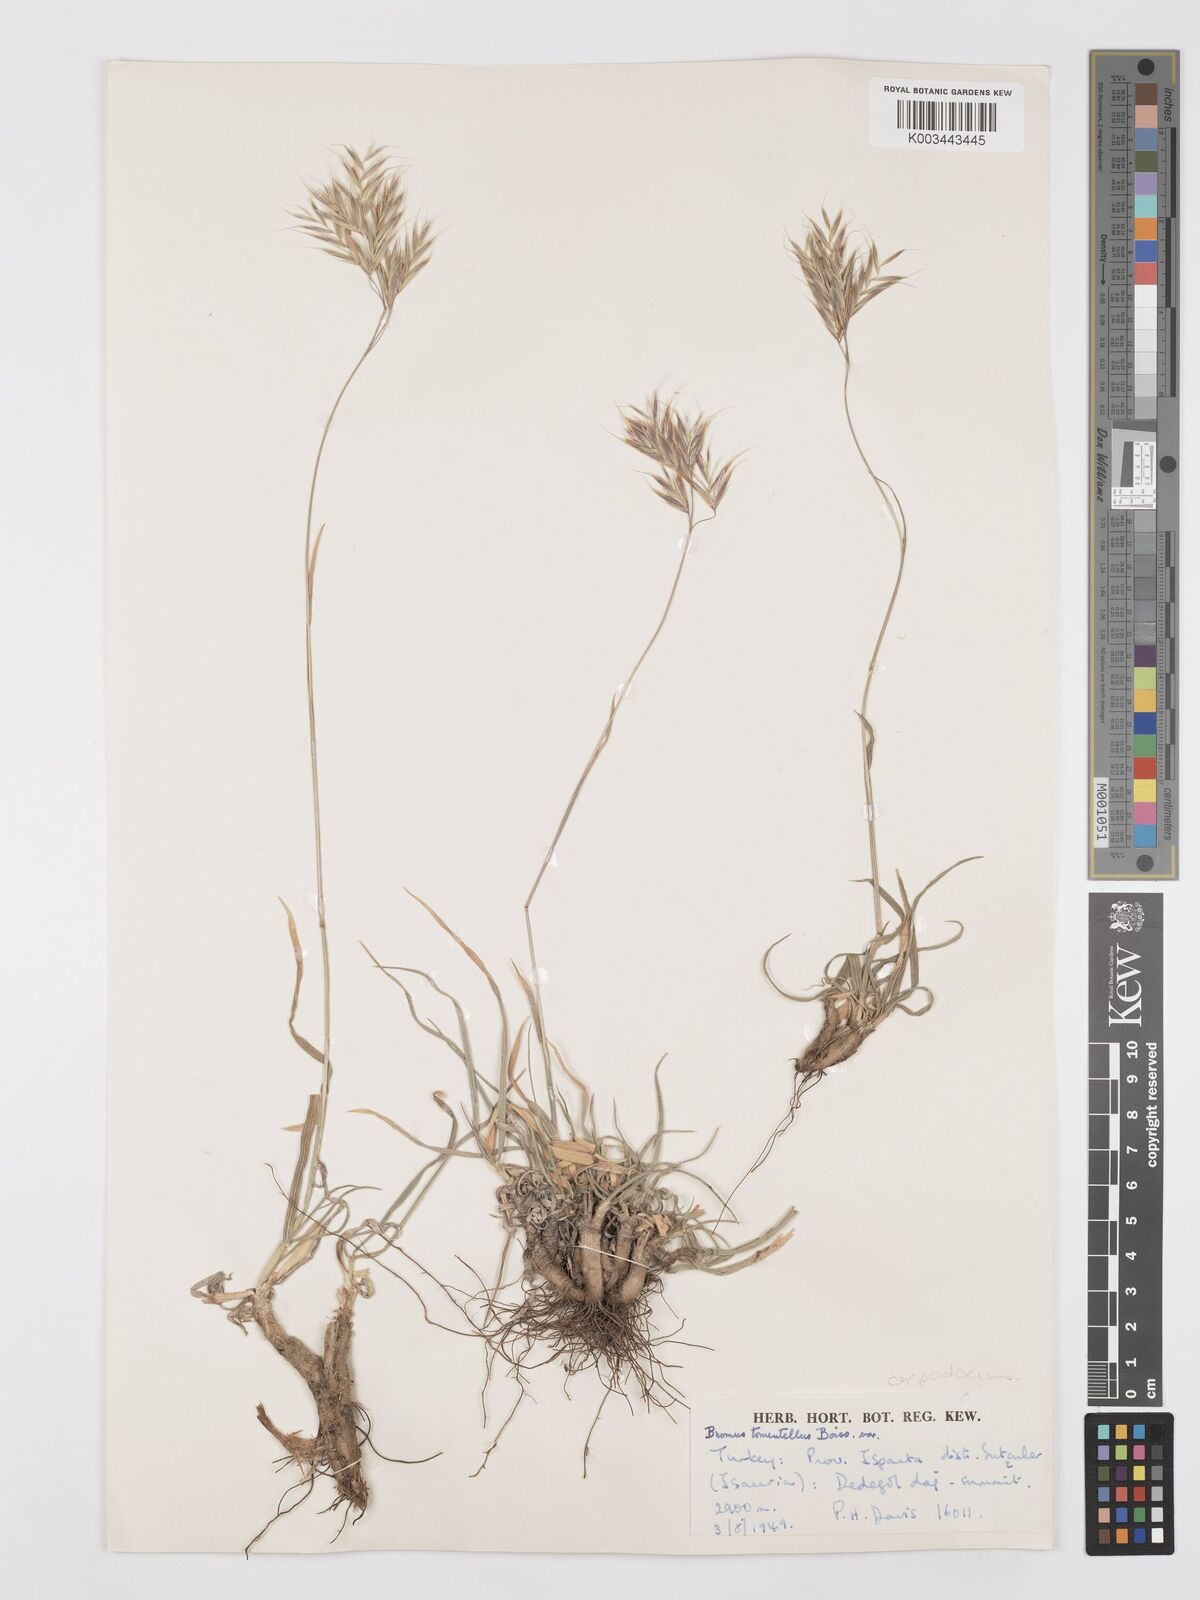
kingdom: Plantae
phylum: Tracheophyta
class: Liliopsida
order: Poales
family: Poaceae
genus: Bromus
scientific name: Bromus tomentellus
